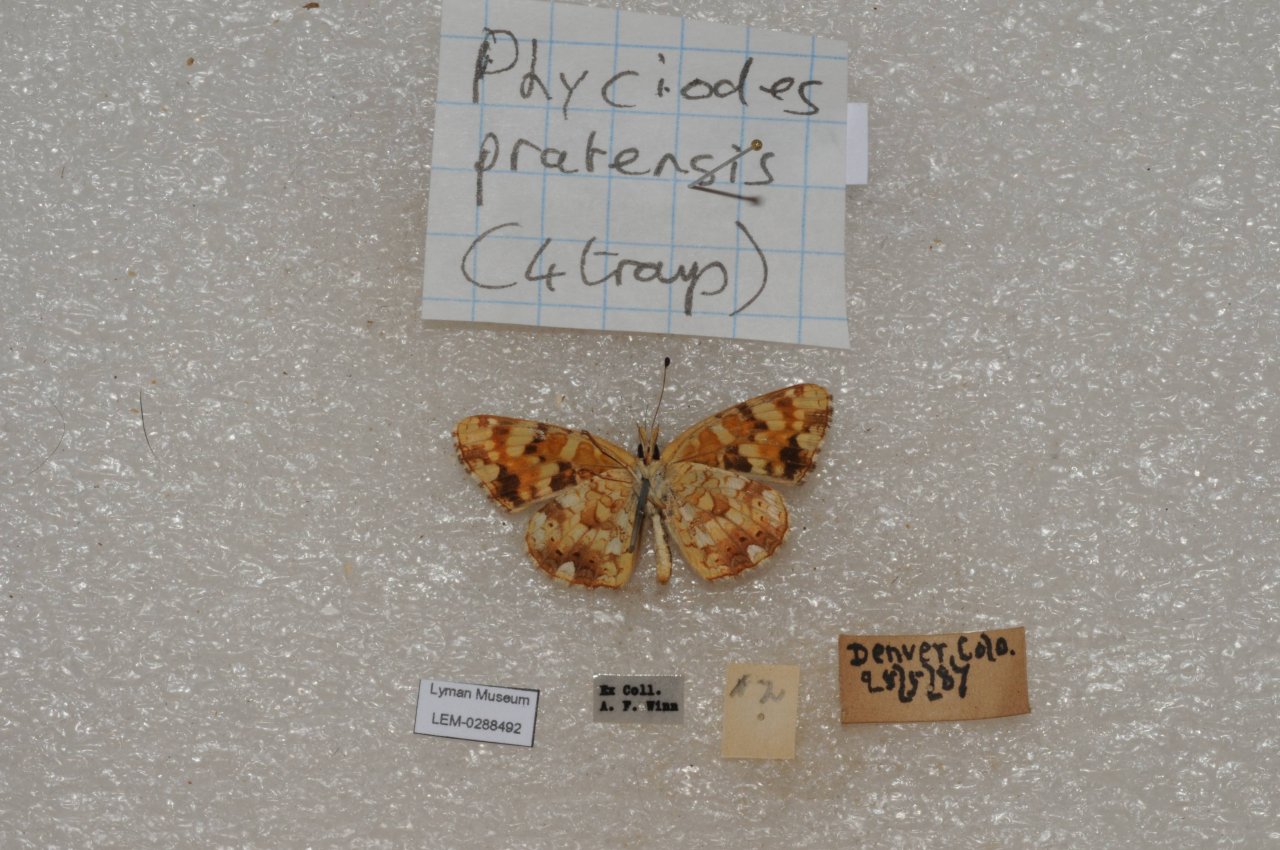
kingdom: Animalia
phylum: Arthropoda
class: Insecta
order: Lepidoptera
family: Nymphalidae
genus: Phyciodes
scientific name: Phyciodes tharos
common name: Field Crescent
